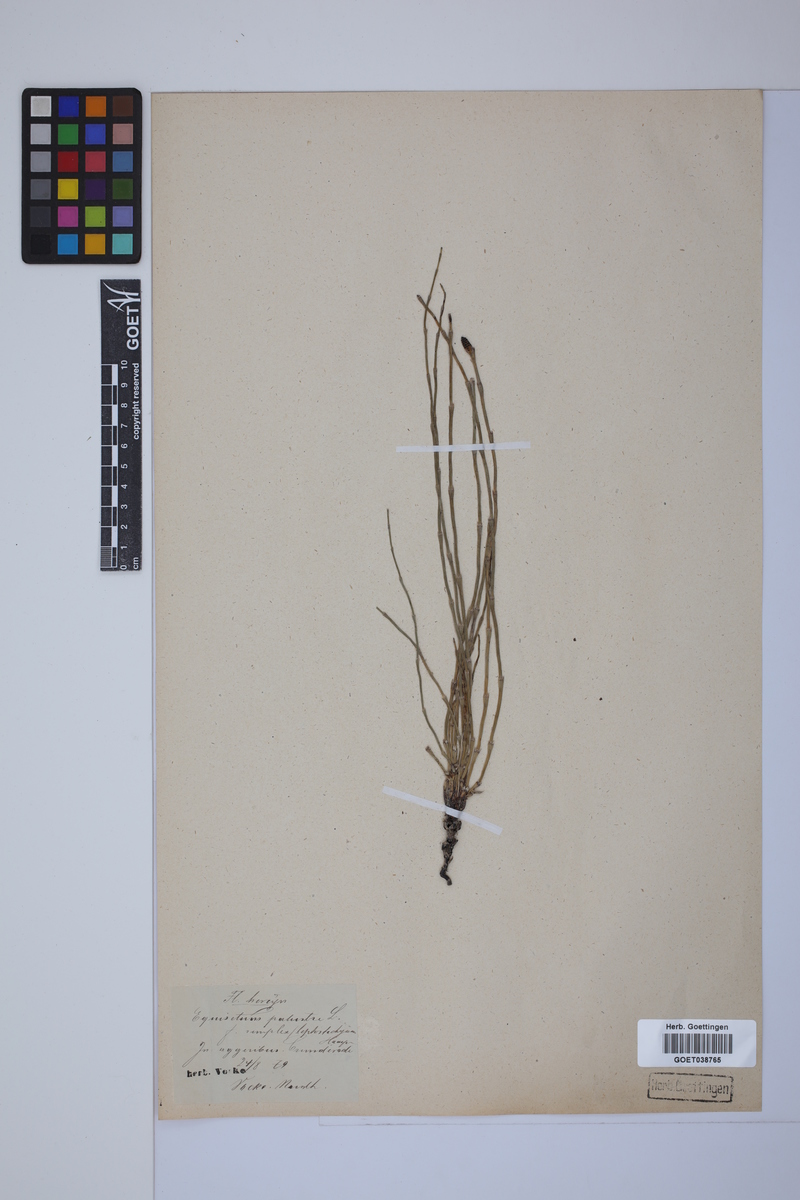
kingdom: Plantae
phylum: Tracheophyta
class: Polypodiopsida
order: Equisetales
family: Equisetaceae
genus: Equisetum
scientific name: Equisetum palustre
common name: Marsh horsetail
